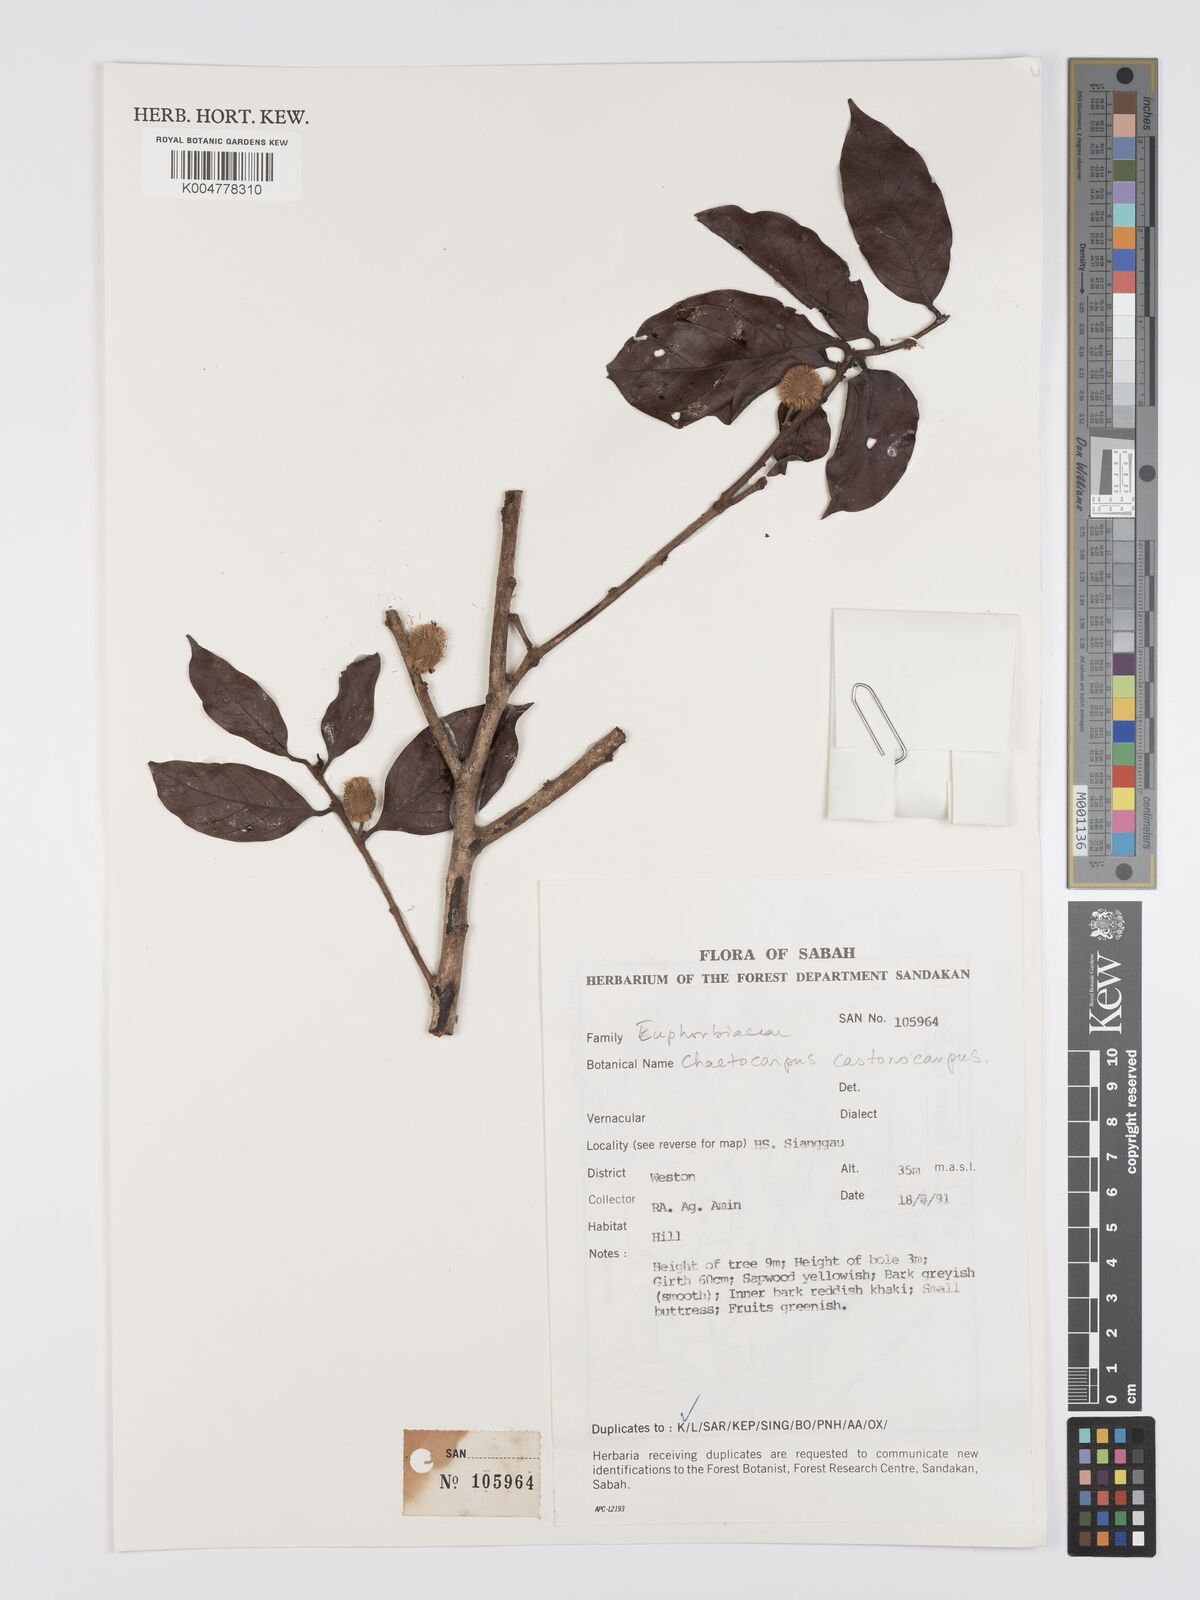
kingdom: Plantae
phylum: Tracheophyta
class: Magnoliopsida
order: Malpighiales
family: Peraceae
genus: Chaetocarpus
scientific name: Chaetocarpus castanocarpus
